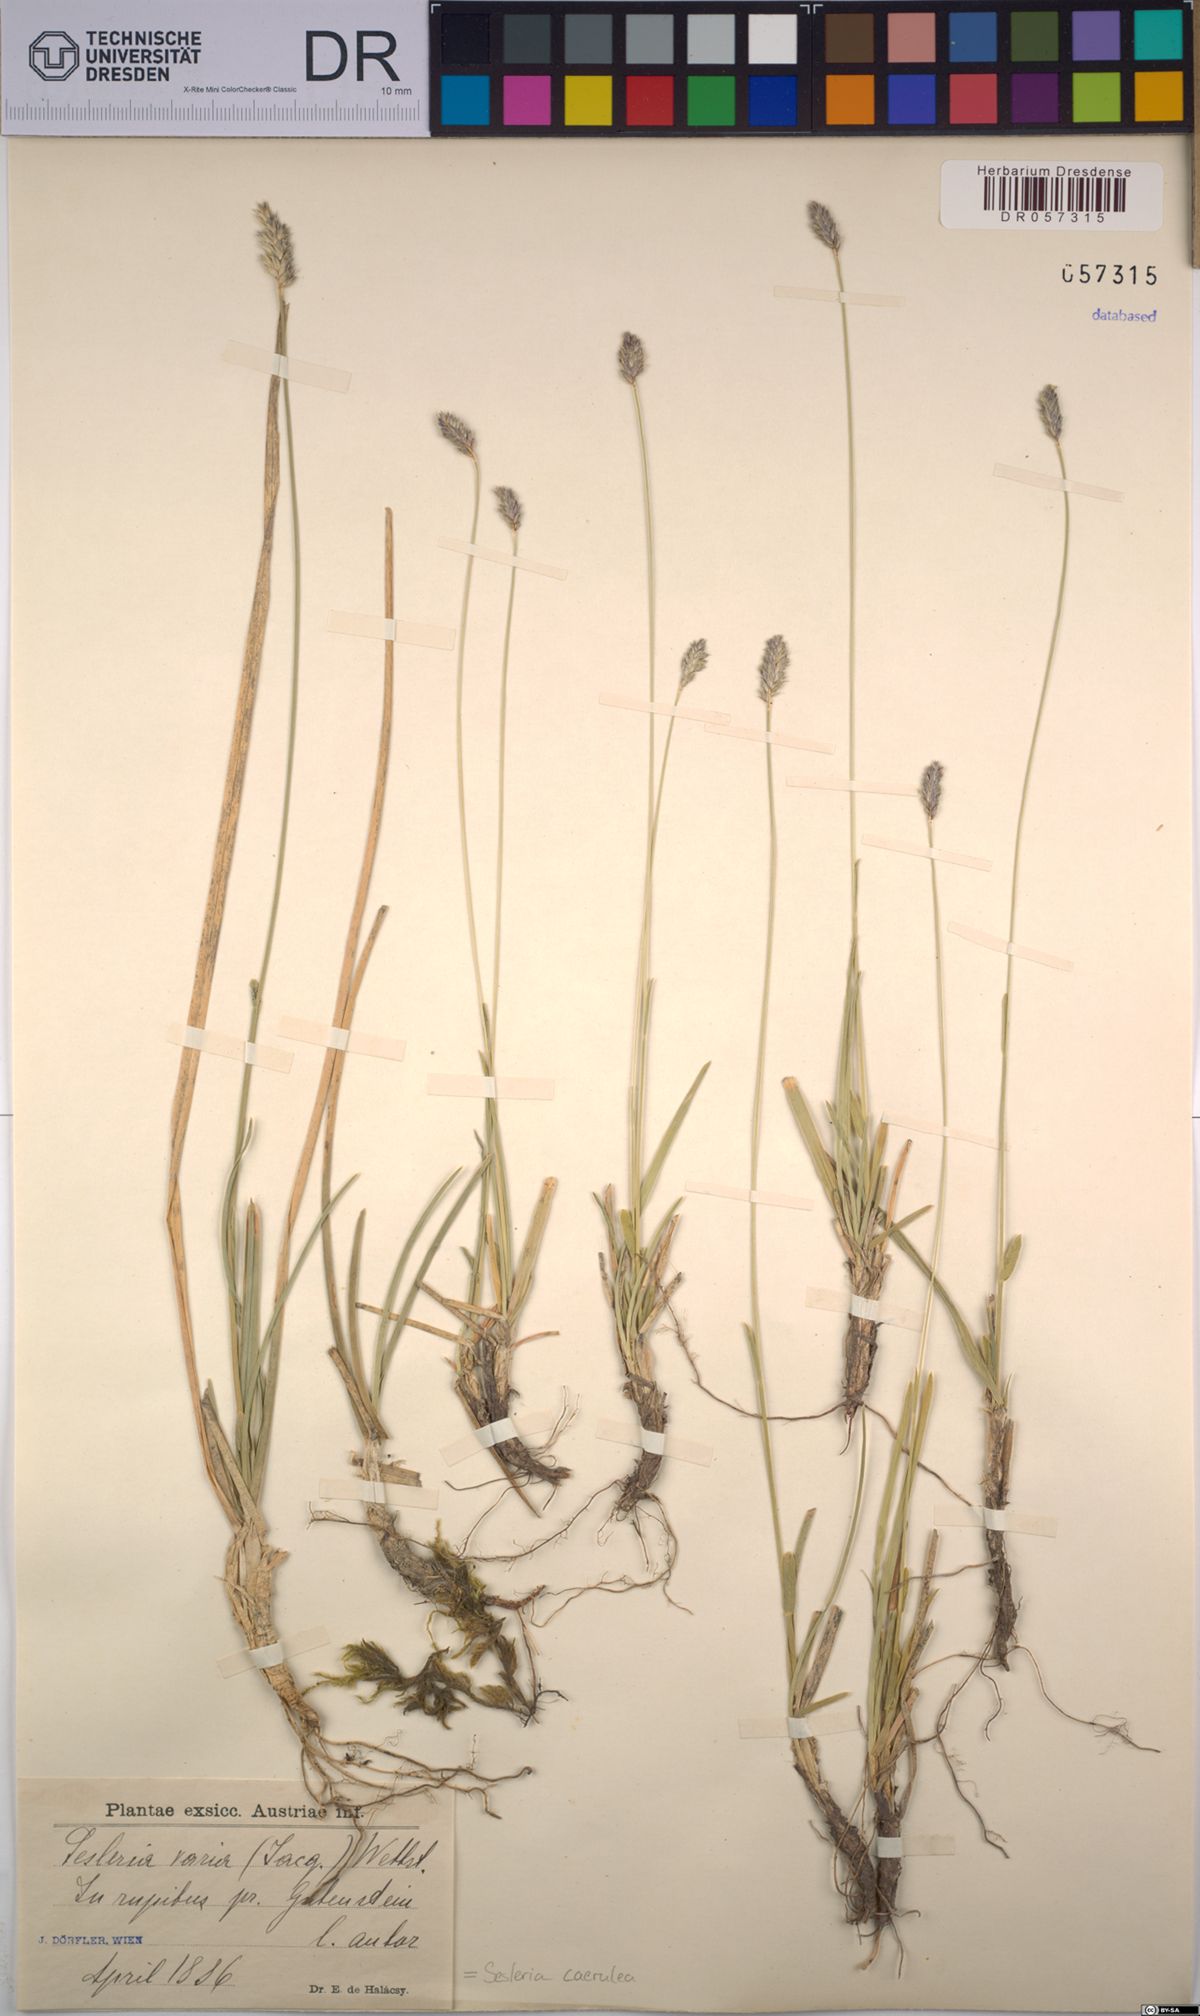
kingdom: Plantae
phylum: Tracheophyta
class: Liliopsida
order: Poales
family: Poaceae
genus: Sesleria
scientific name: Sesleria caerulea
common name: Blue moor-grass
